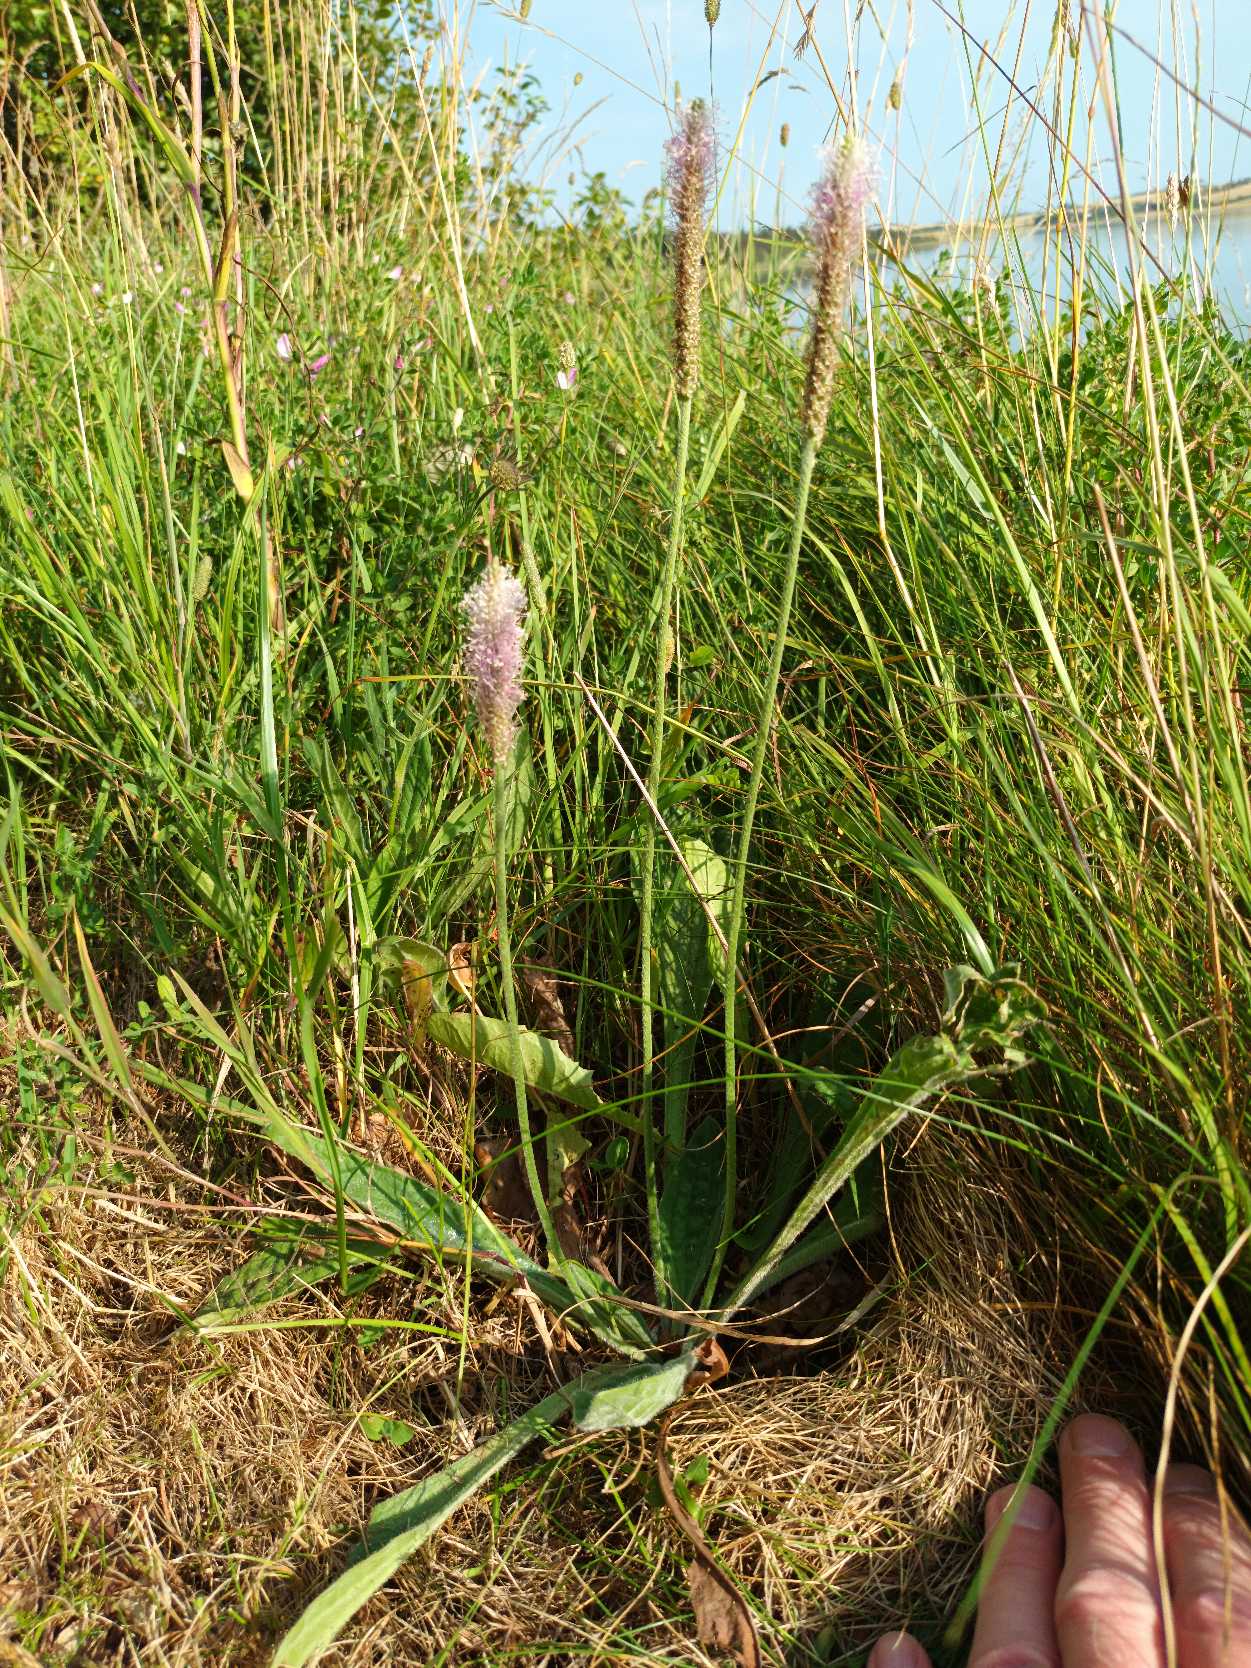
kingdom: Plantae
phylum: Tracheophyta
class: Magnoliopsida
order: Lamiales
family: Plantaginaceae
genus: Plantago
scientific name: Plantago media
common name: Dunet vejbred
